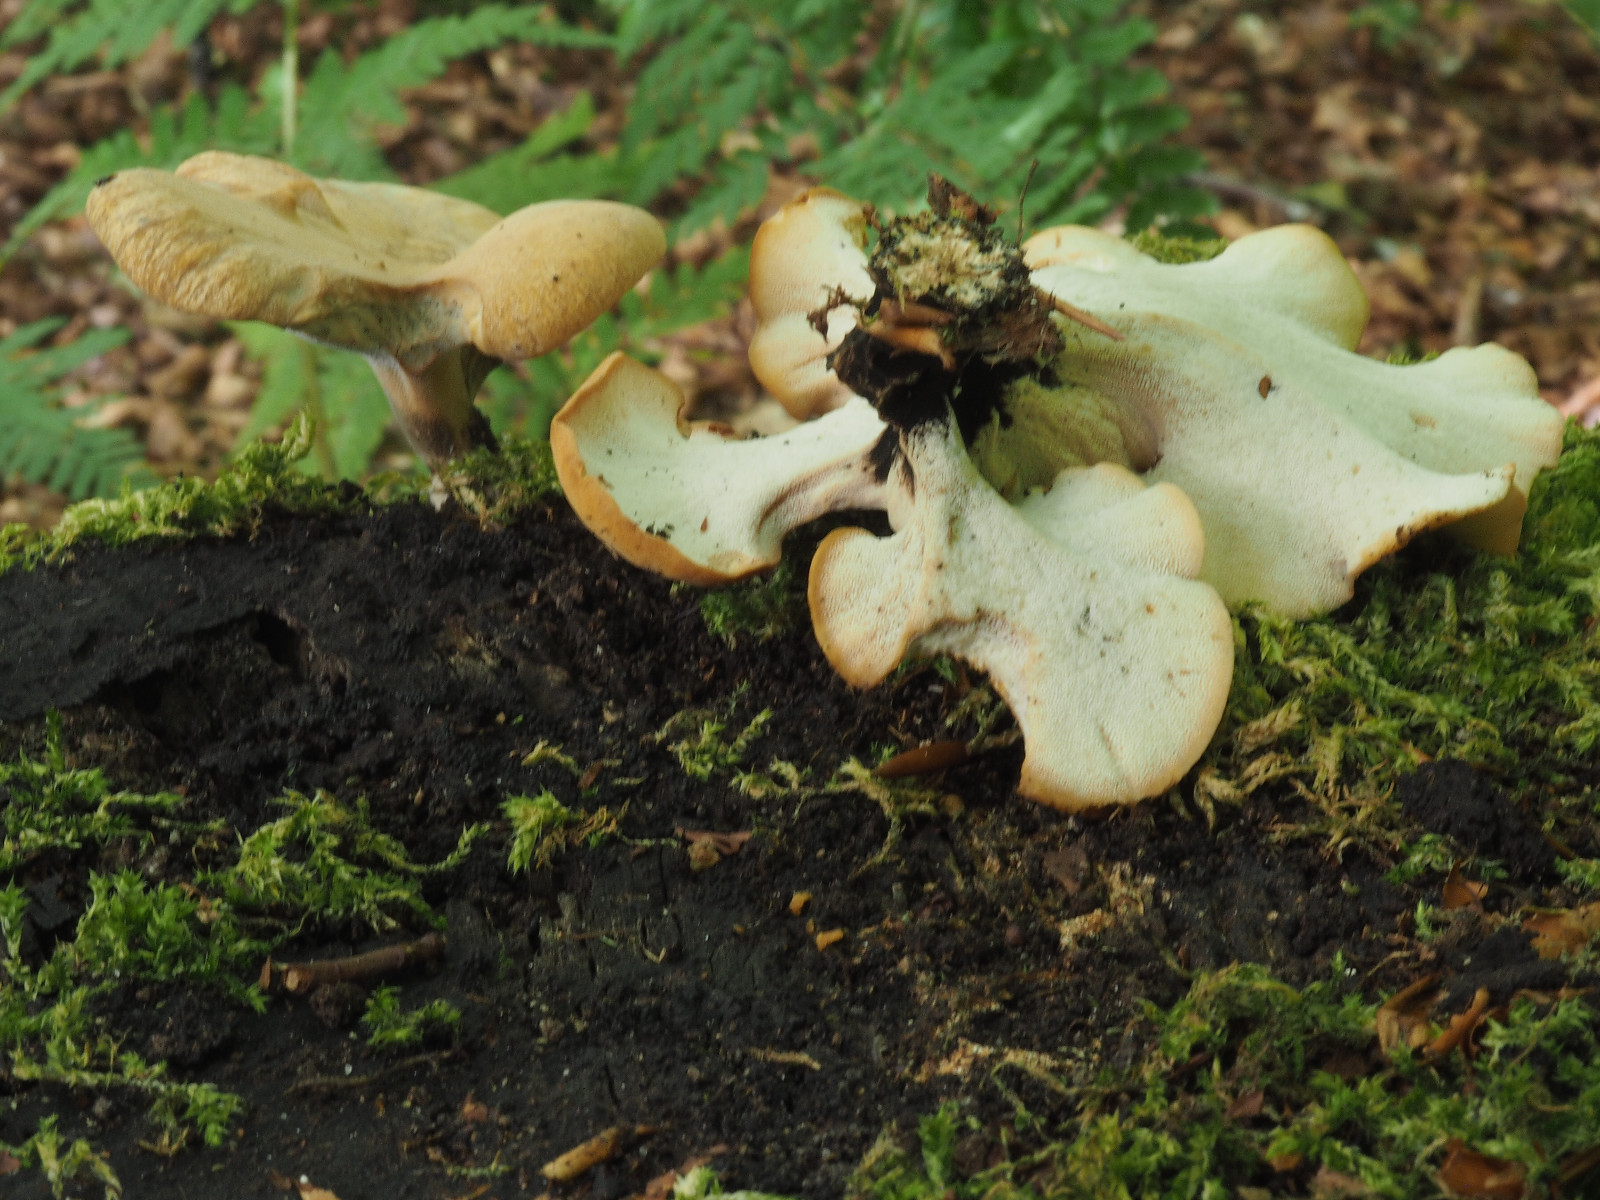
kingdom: Fungi
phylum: Basidiomycota
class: Agaricomycetes
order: Polyporales
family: Polyporaceae
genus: Cerioporus
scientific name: Cerioporus varius
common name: foranderlig stilkporesvamp
